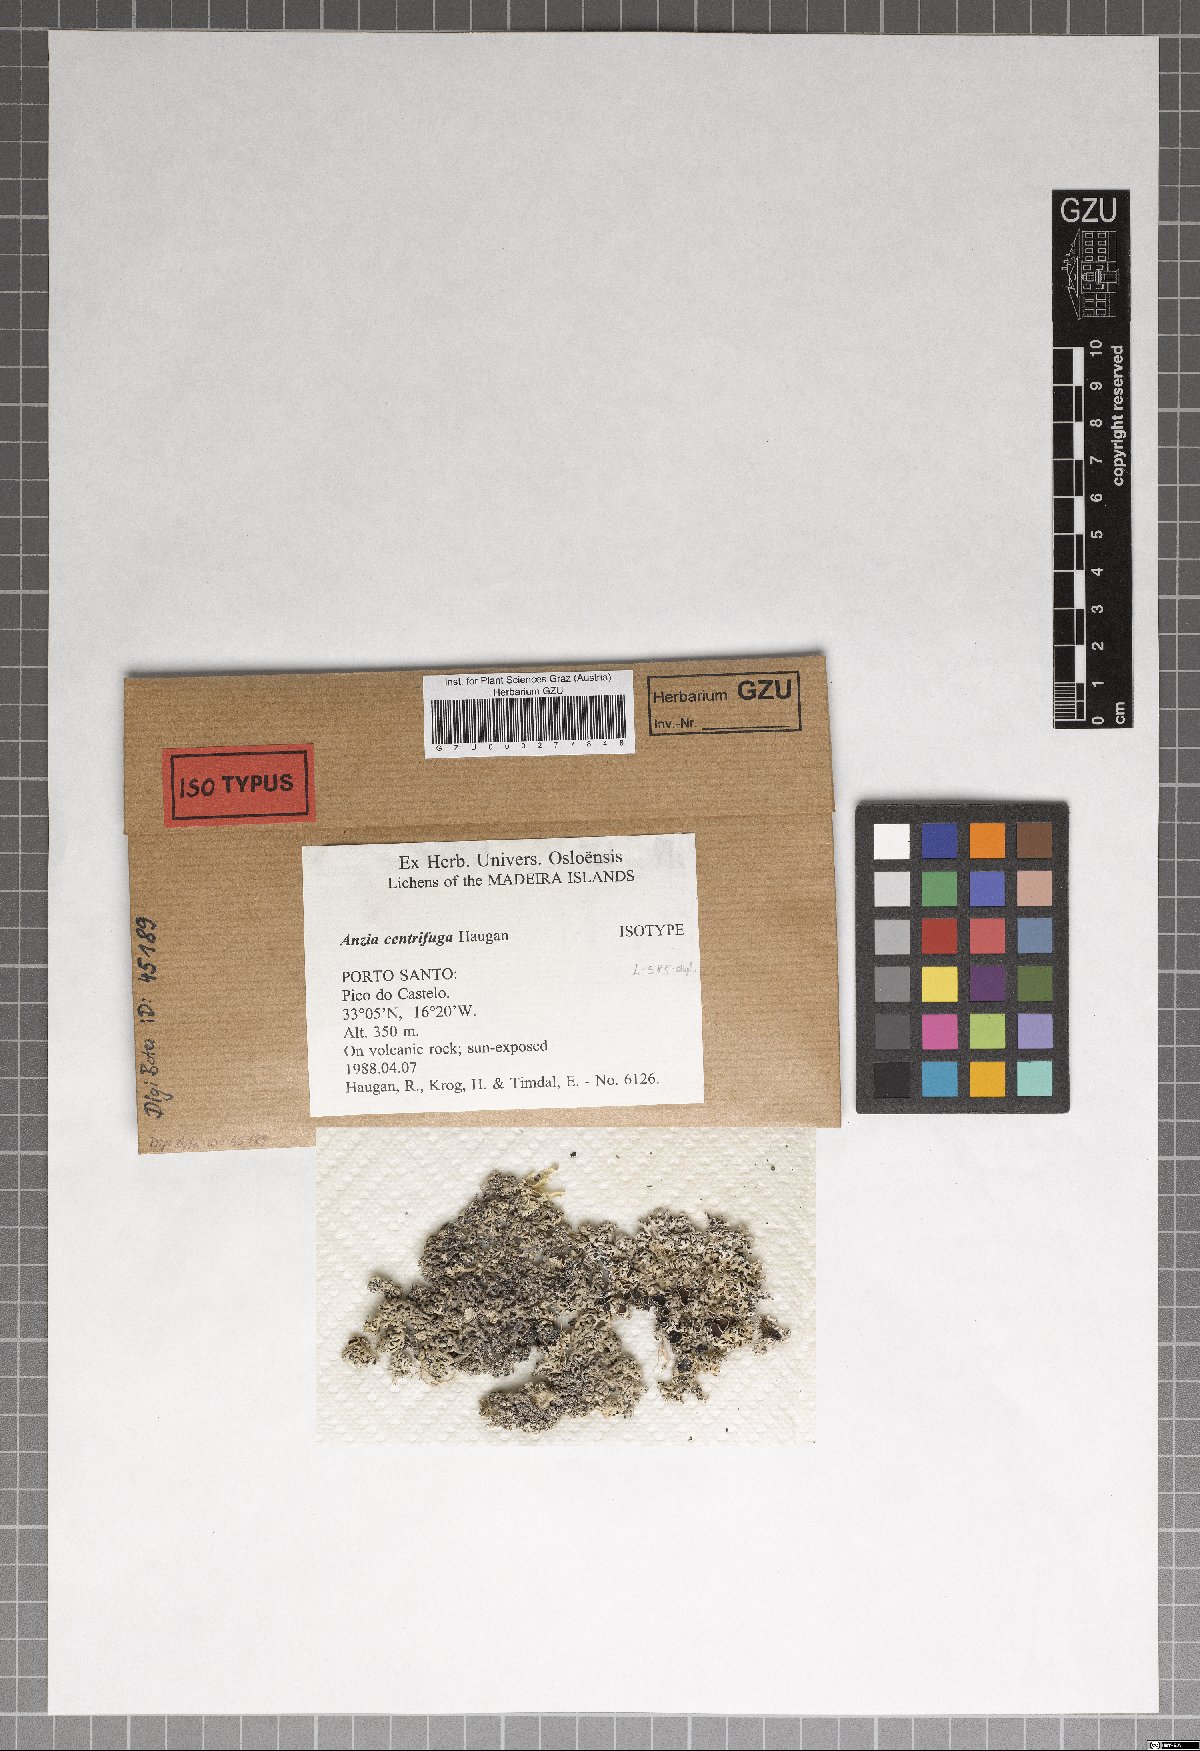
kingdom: Fungi
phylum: Ascomycota
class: Lecanoromycetes
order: Lecanorales
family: Parmeliaceae
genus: Anzia
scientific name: Anzia centrifuga
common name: Porto santo foam lichen
